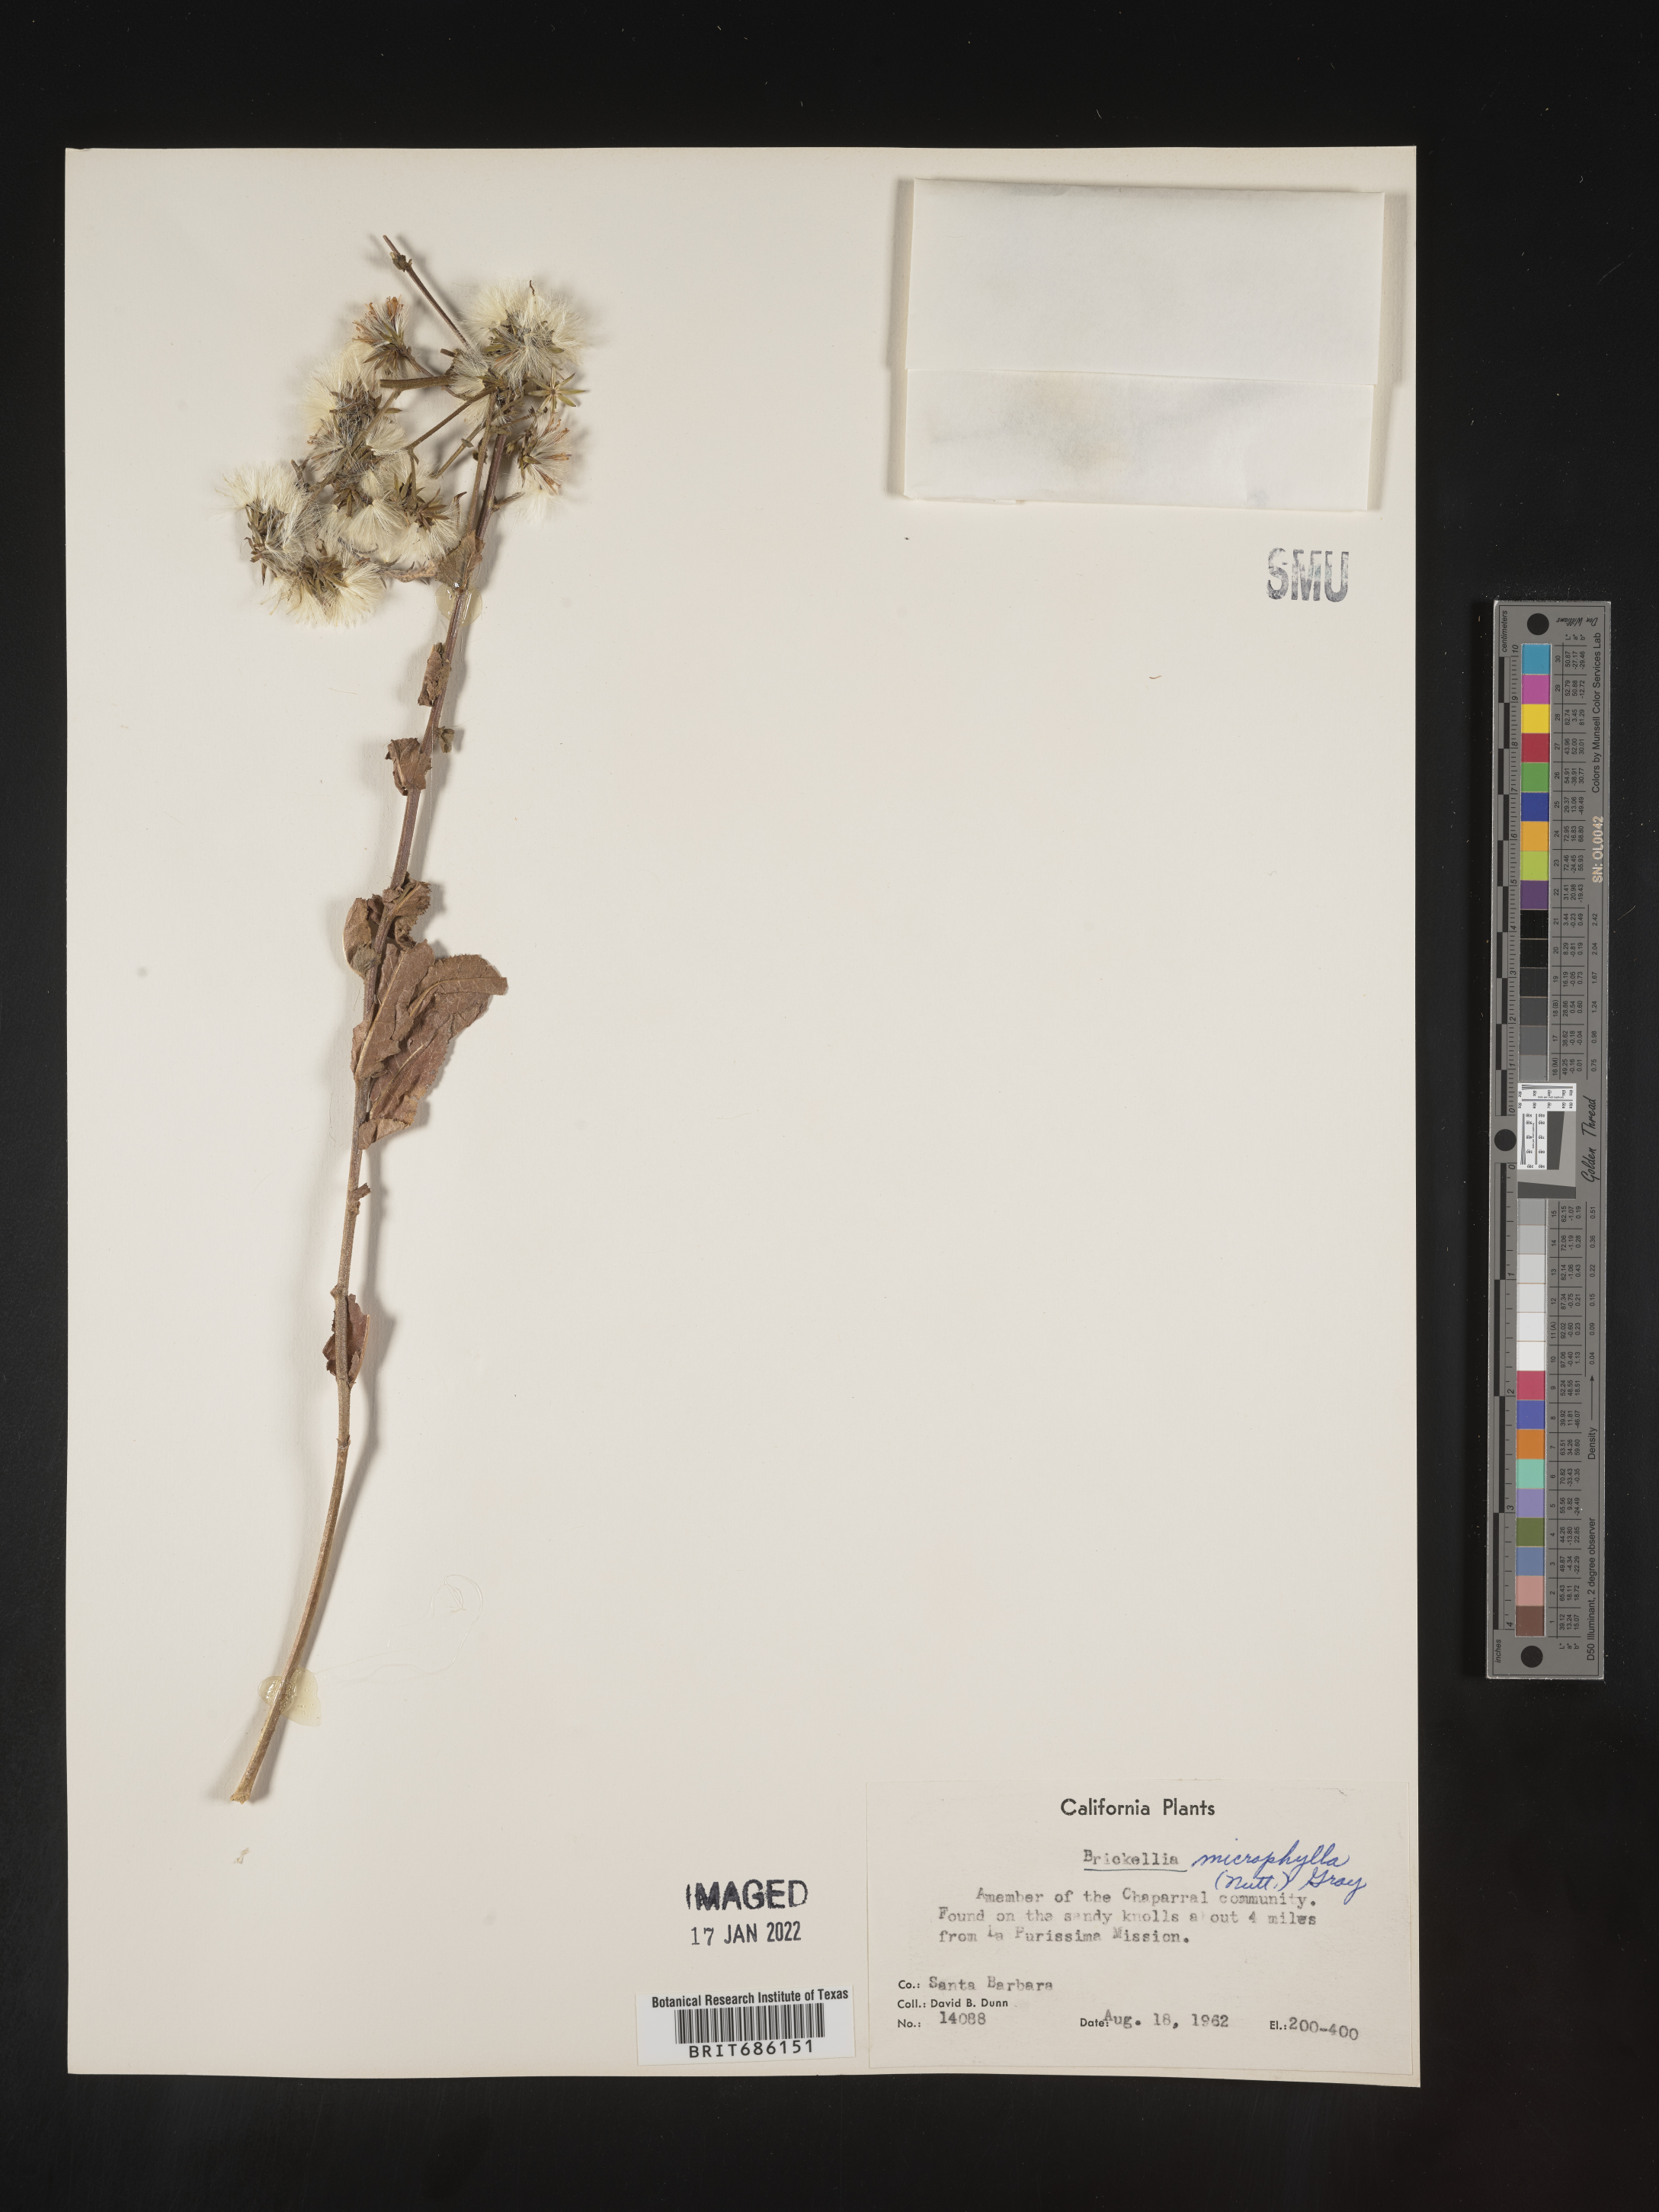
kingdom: Plantae
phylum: Tracheophyta
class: Magnoliopsida
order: Asterales
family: Asteraceae
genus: Brickellia
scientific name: Brickellia microphylla
